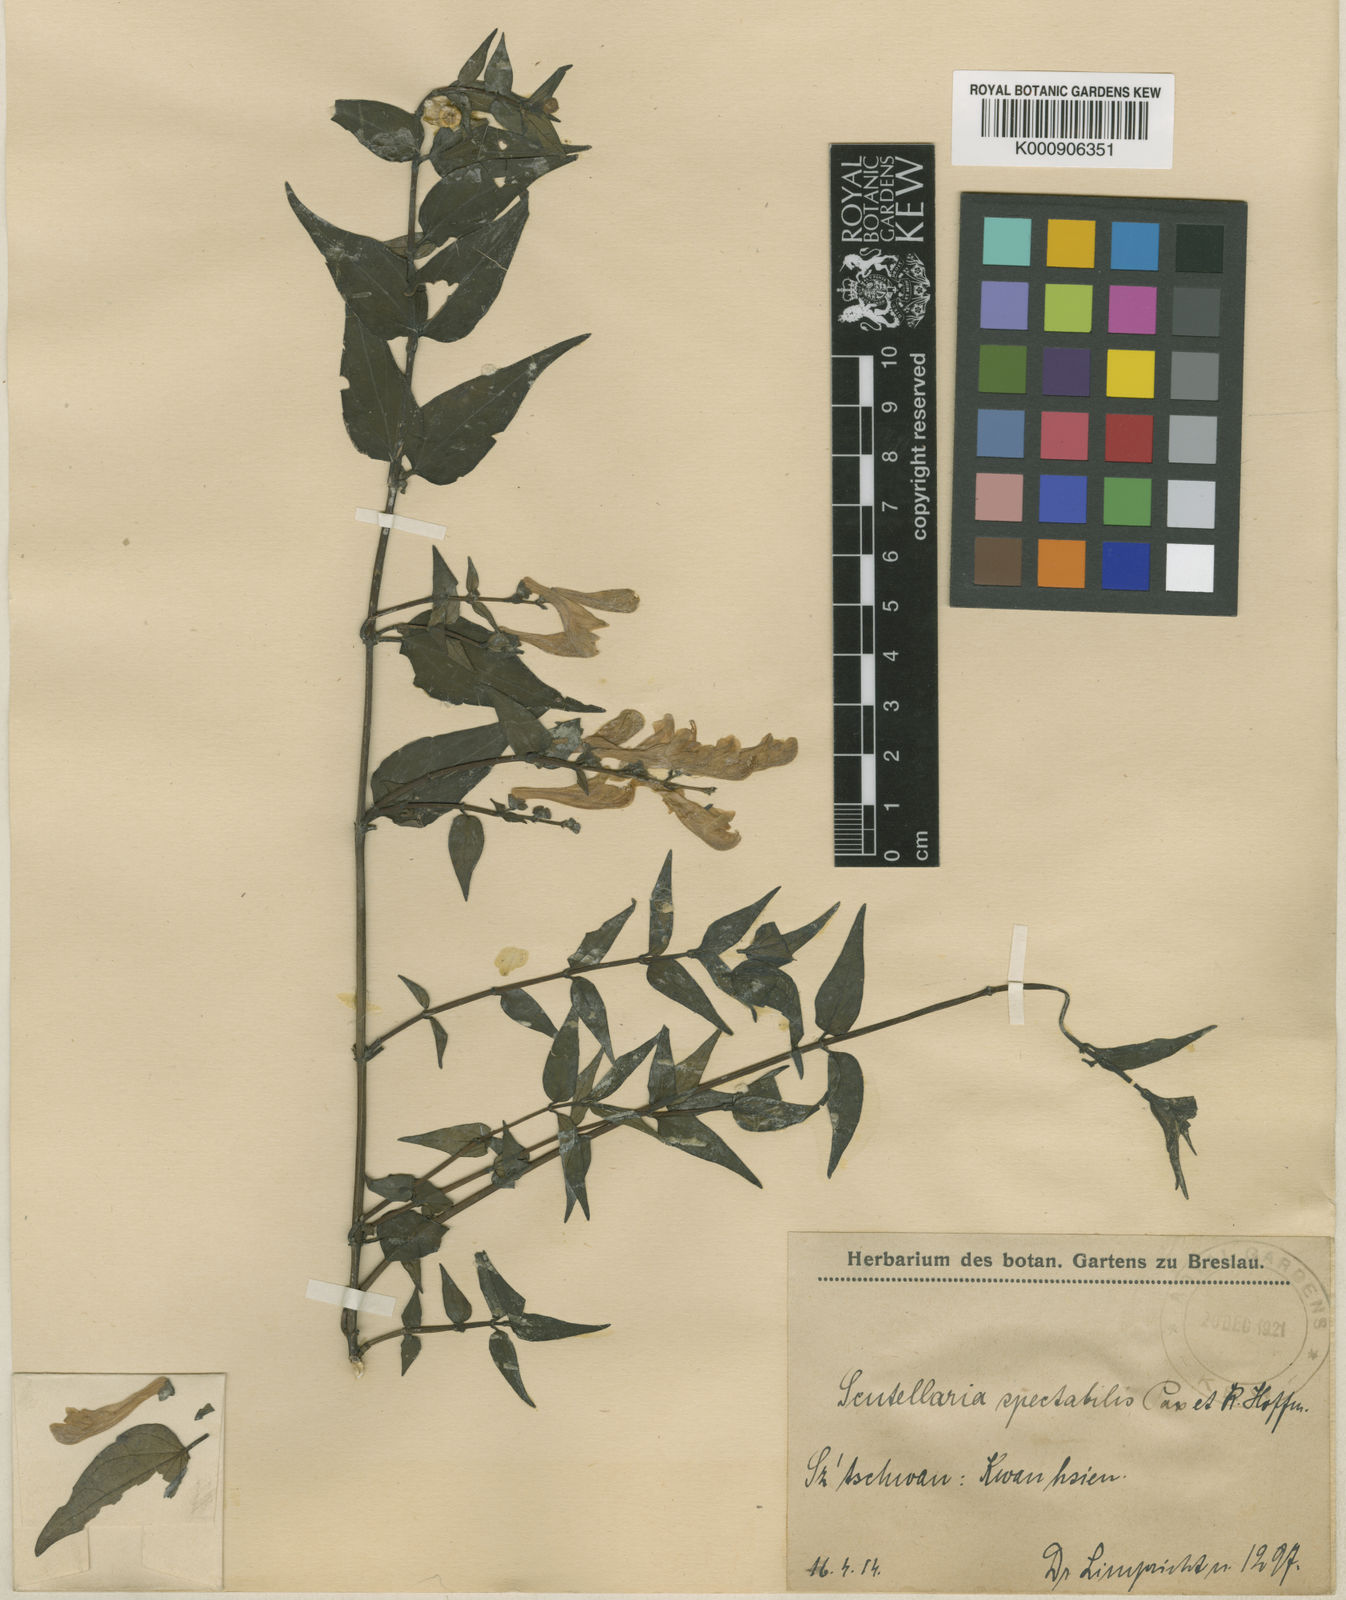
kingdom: Plantae
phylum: Tracheophyta
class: Magnoliopsida
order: Lamiales
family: Lamiaceae
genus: Scutellaria
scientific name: Scutellaria delavayi
